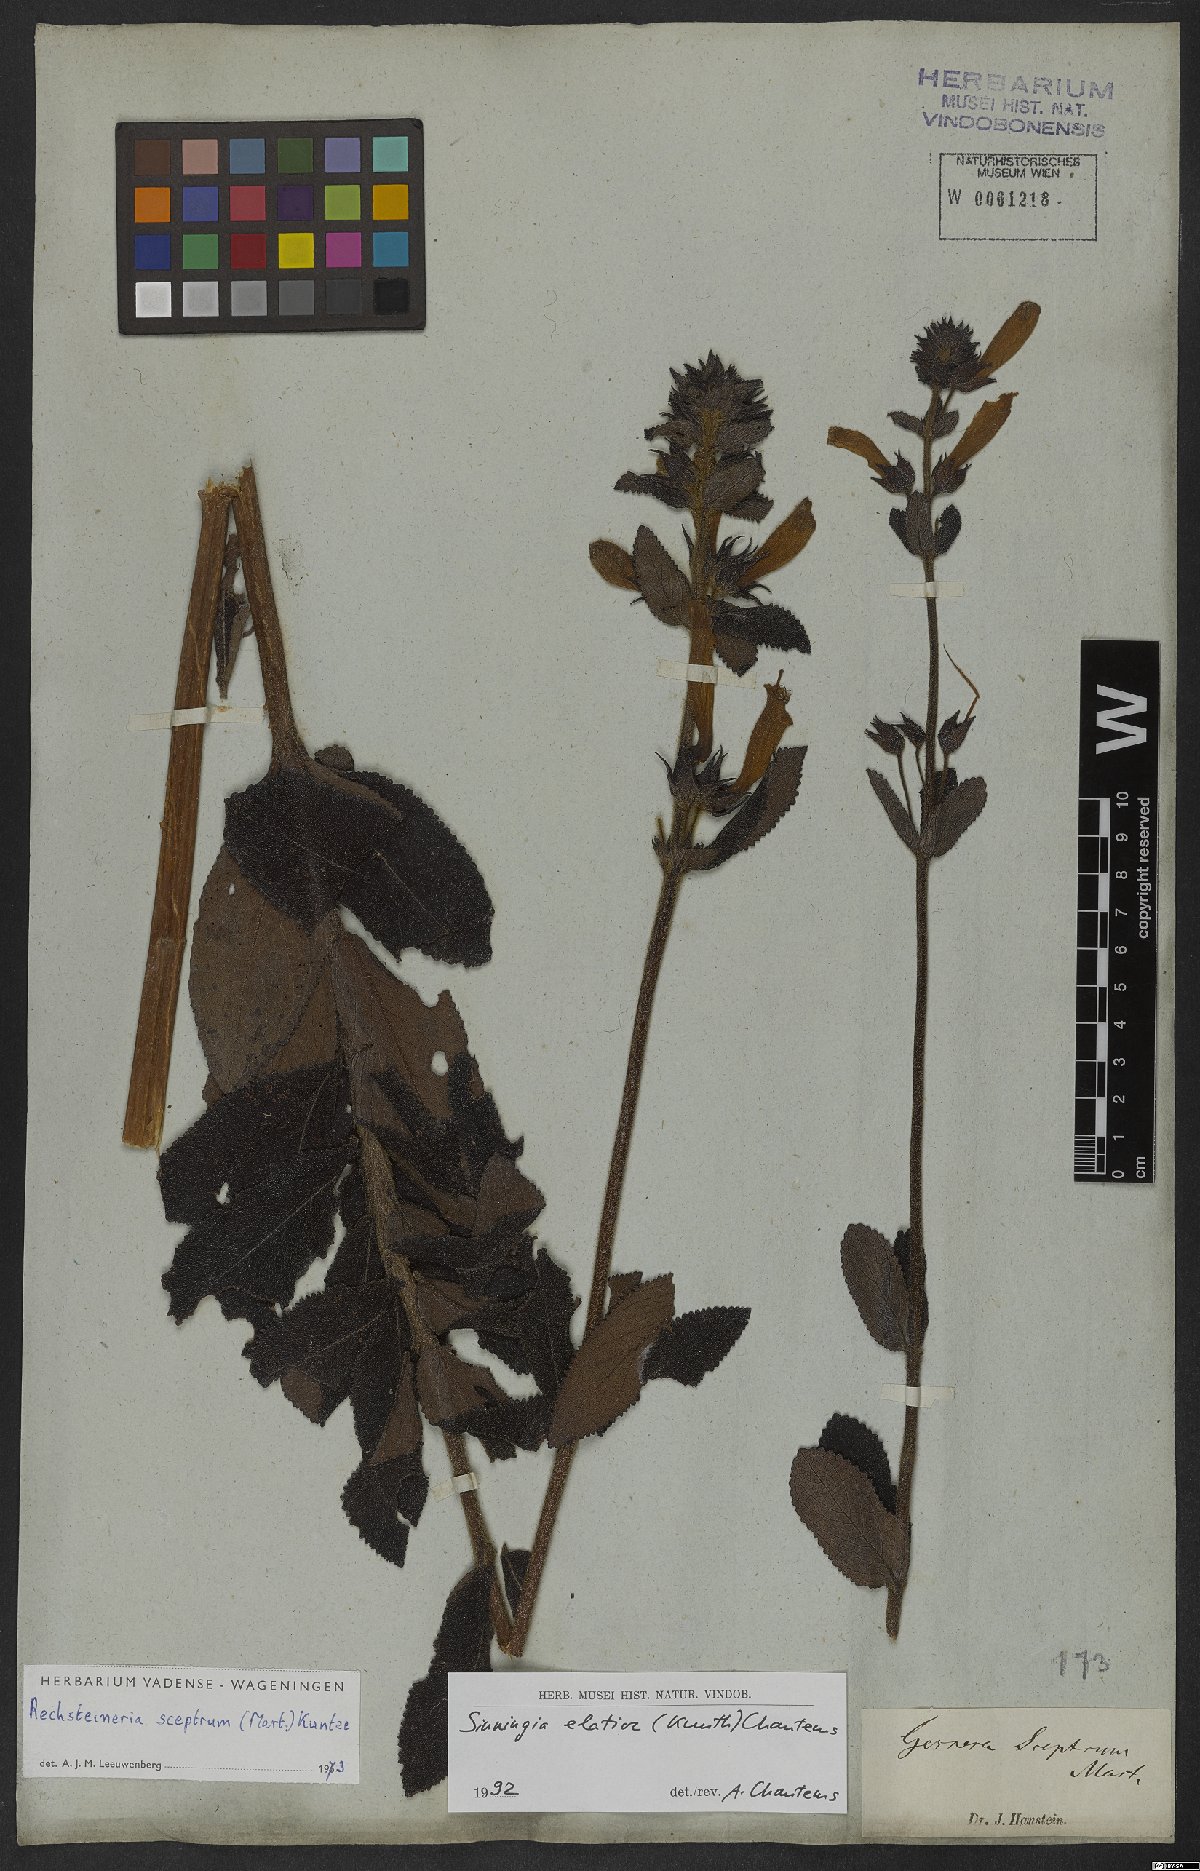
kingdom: Plantae
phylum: Tracheophyta
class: Magnoliopsida
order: Lamiales
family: Gesneriaceae
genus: Sinningia
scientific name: Sinningia elatior
